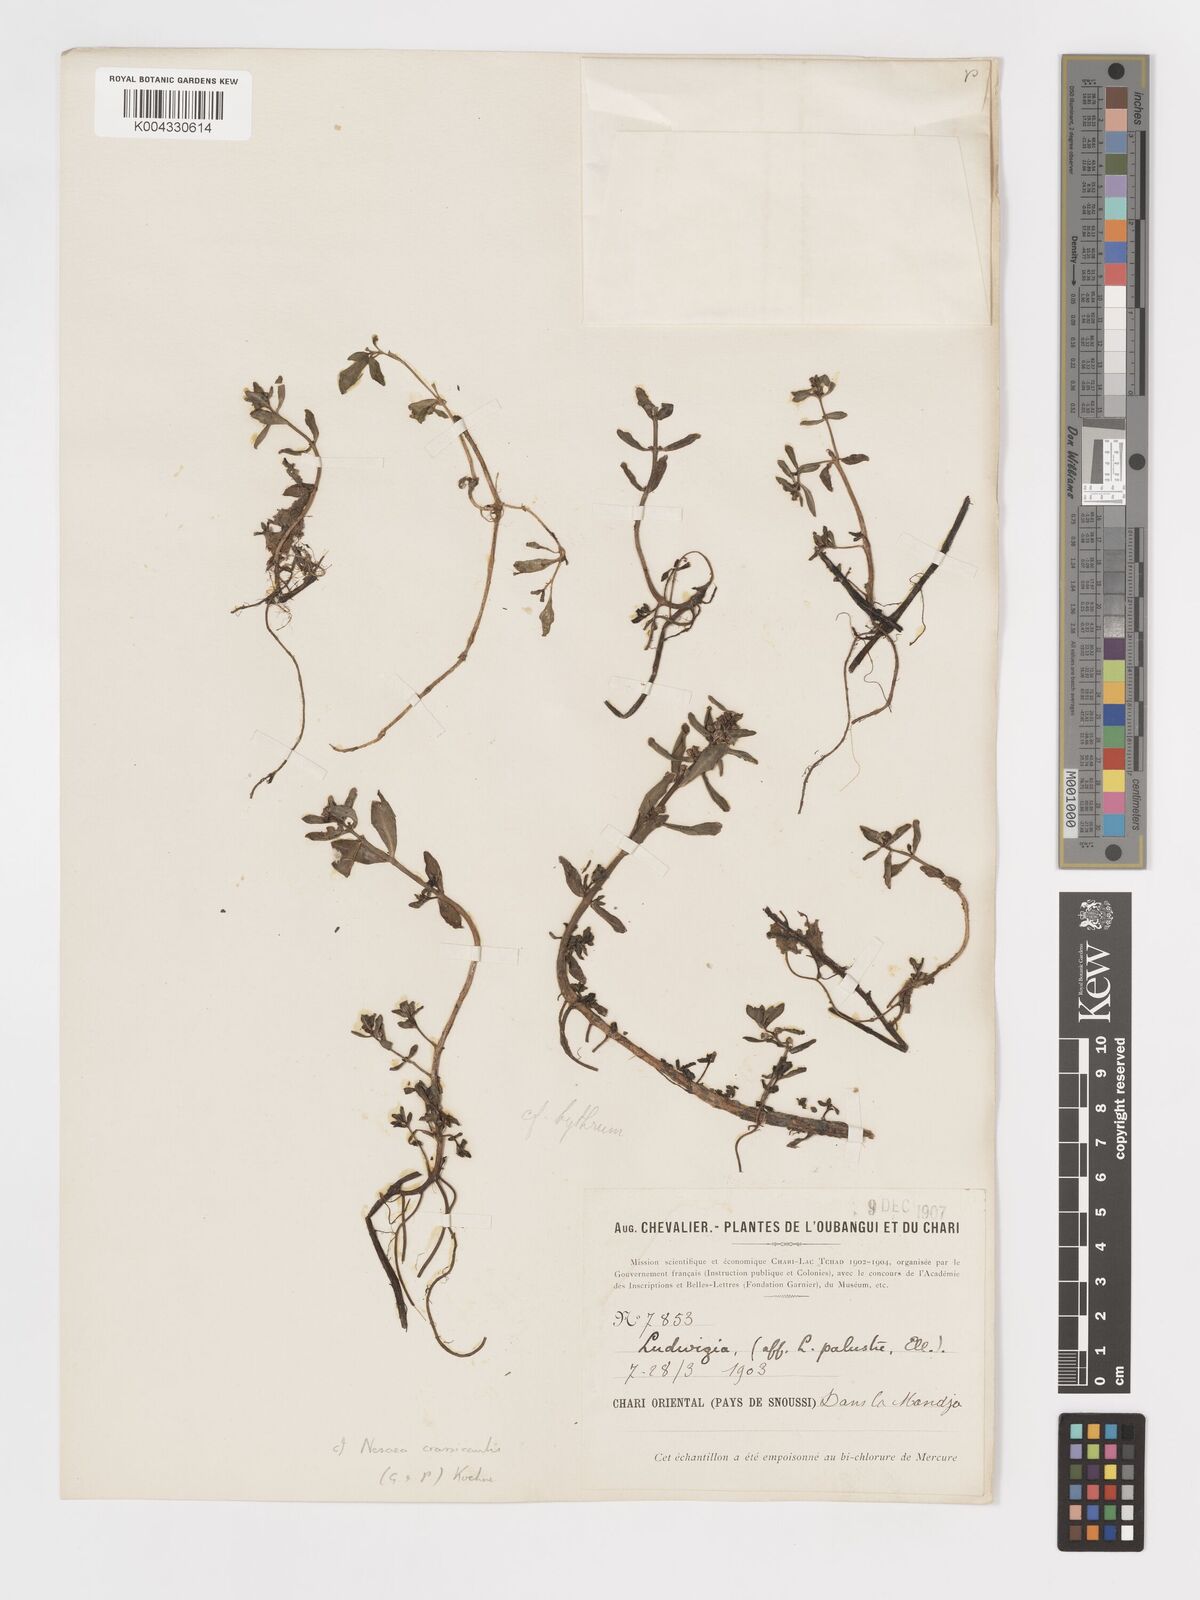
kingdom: Plantae
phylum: Tracheophyta
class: Magnoliopsida
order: Myrtales
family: Lythraceae
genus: Ammannia
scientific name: Ammannia crassicaulis
